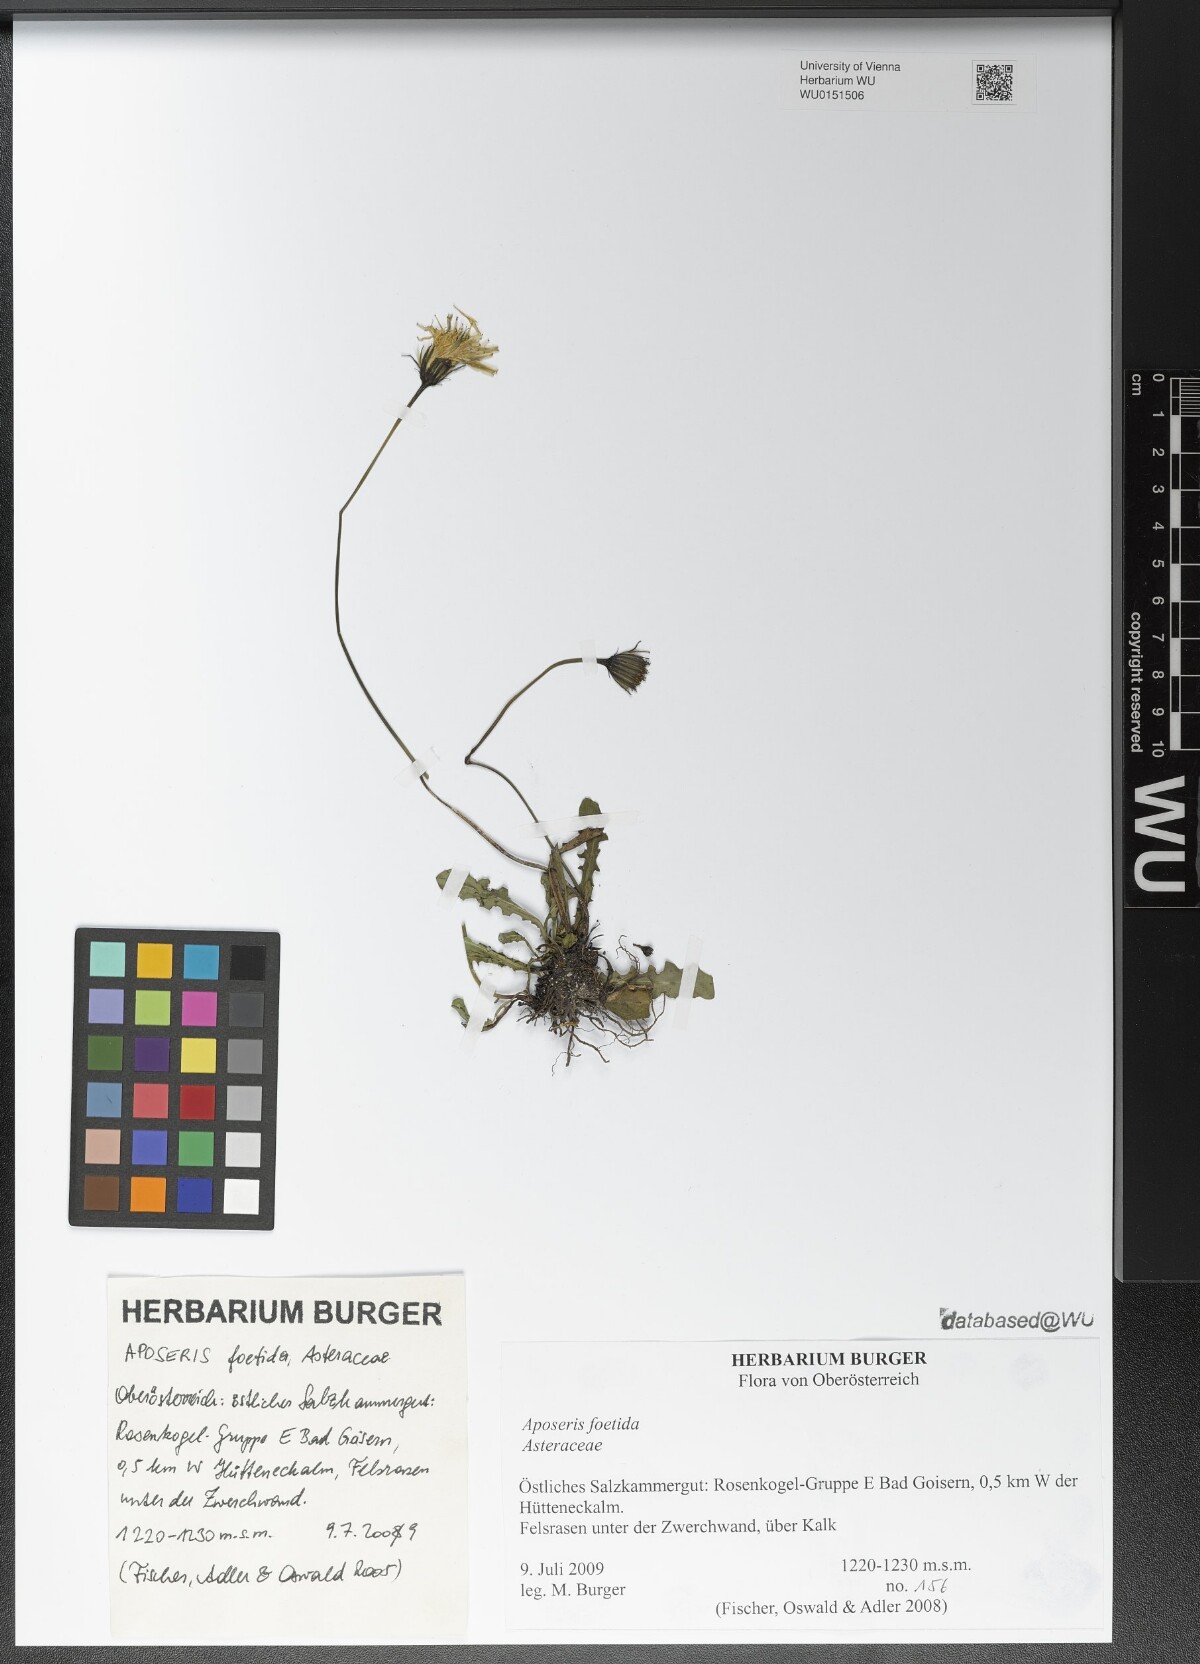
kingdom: Plantae
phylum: Tracheophyta
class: Magnoliopsida
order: Asterales
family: Asteraceae
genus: Aposeris
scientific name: Aposeris foetida
